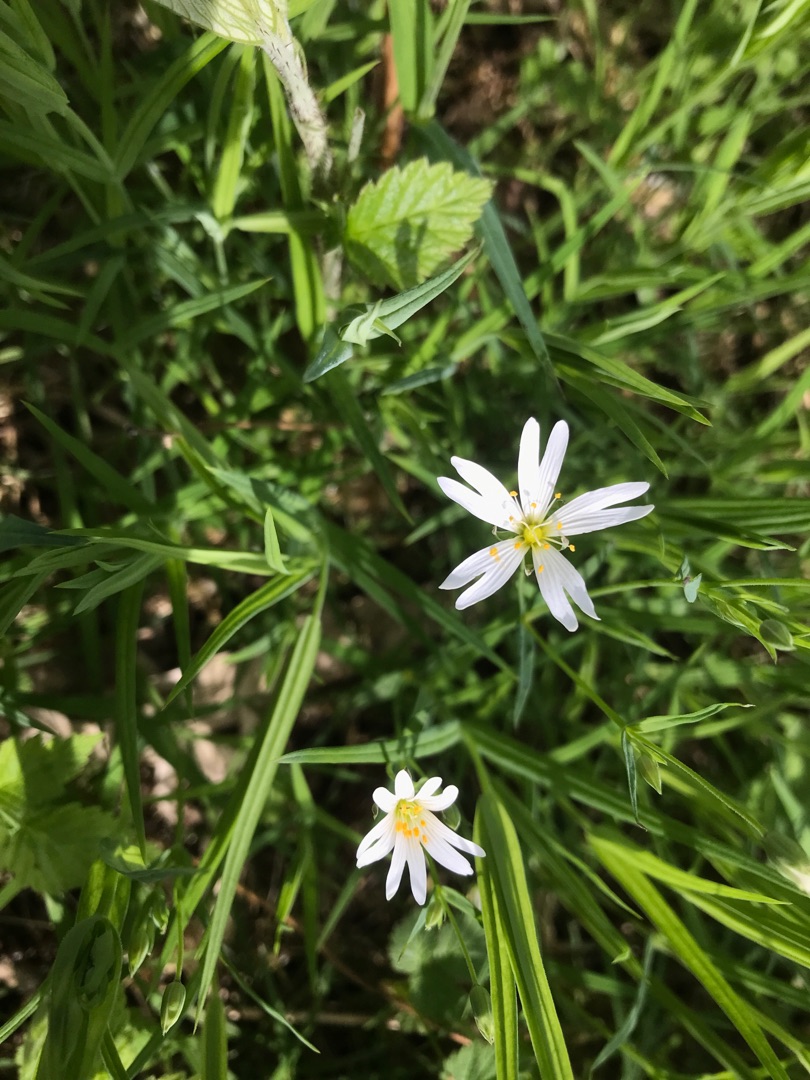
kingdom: Plantae
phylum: Tracheophyta
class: Magnoliopsida
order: Caryophyllales
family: Caryophyllaceae
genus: Rabelera
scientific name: Rabelera holostea
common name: Stor fladstjerne
